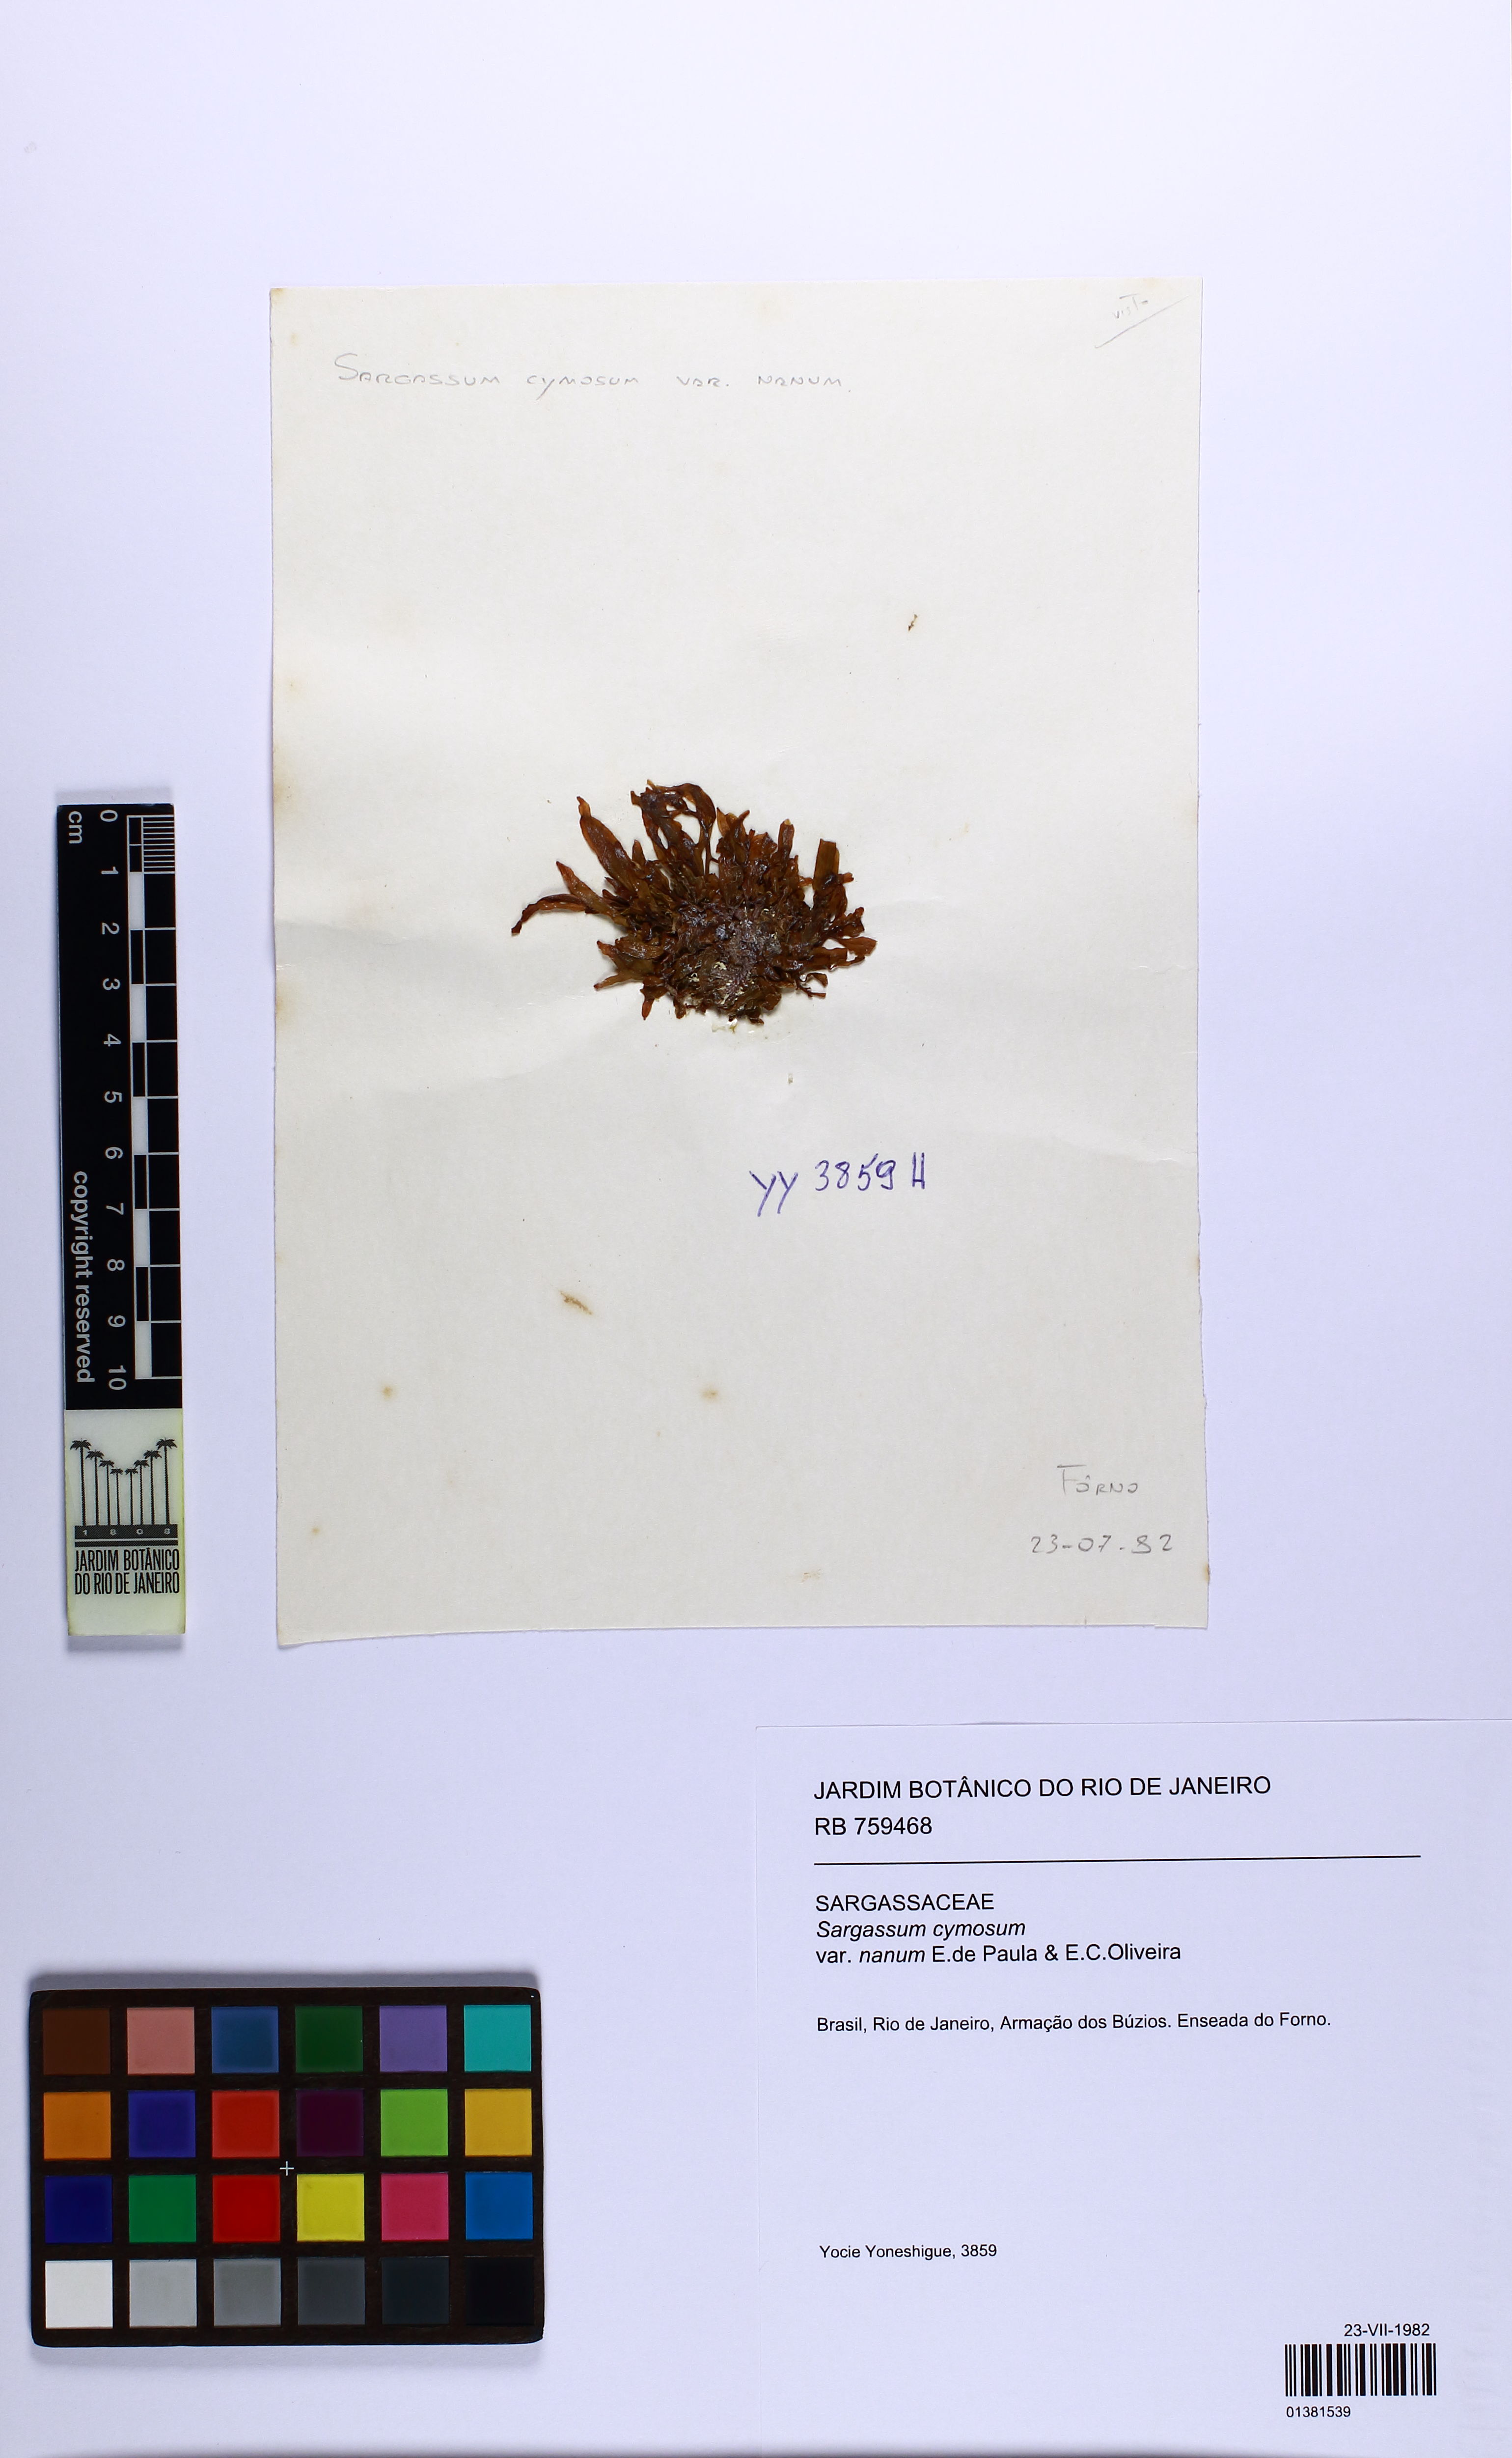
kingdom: Chromista
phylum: Ochrophyta
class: Phaeophyceae
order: Fucales
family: Sargassaceae
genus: Sargassum
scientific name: Sargassum cymosum
